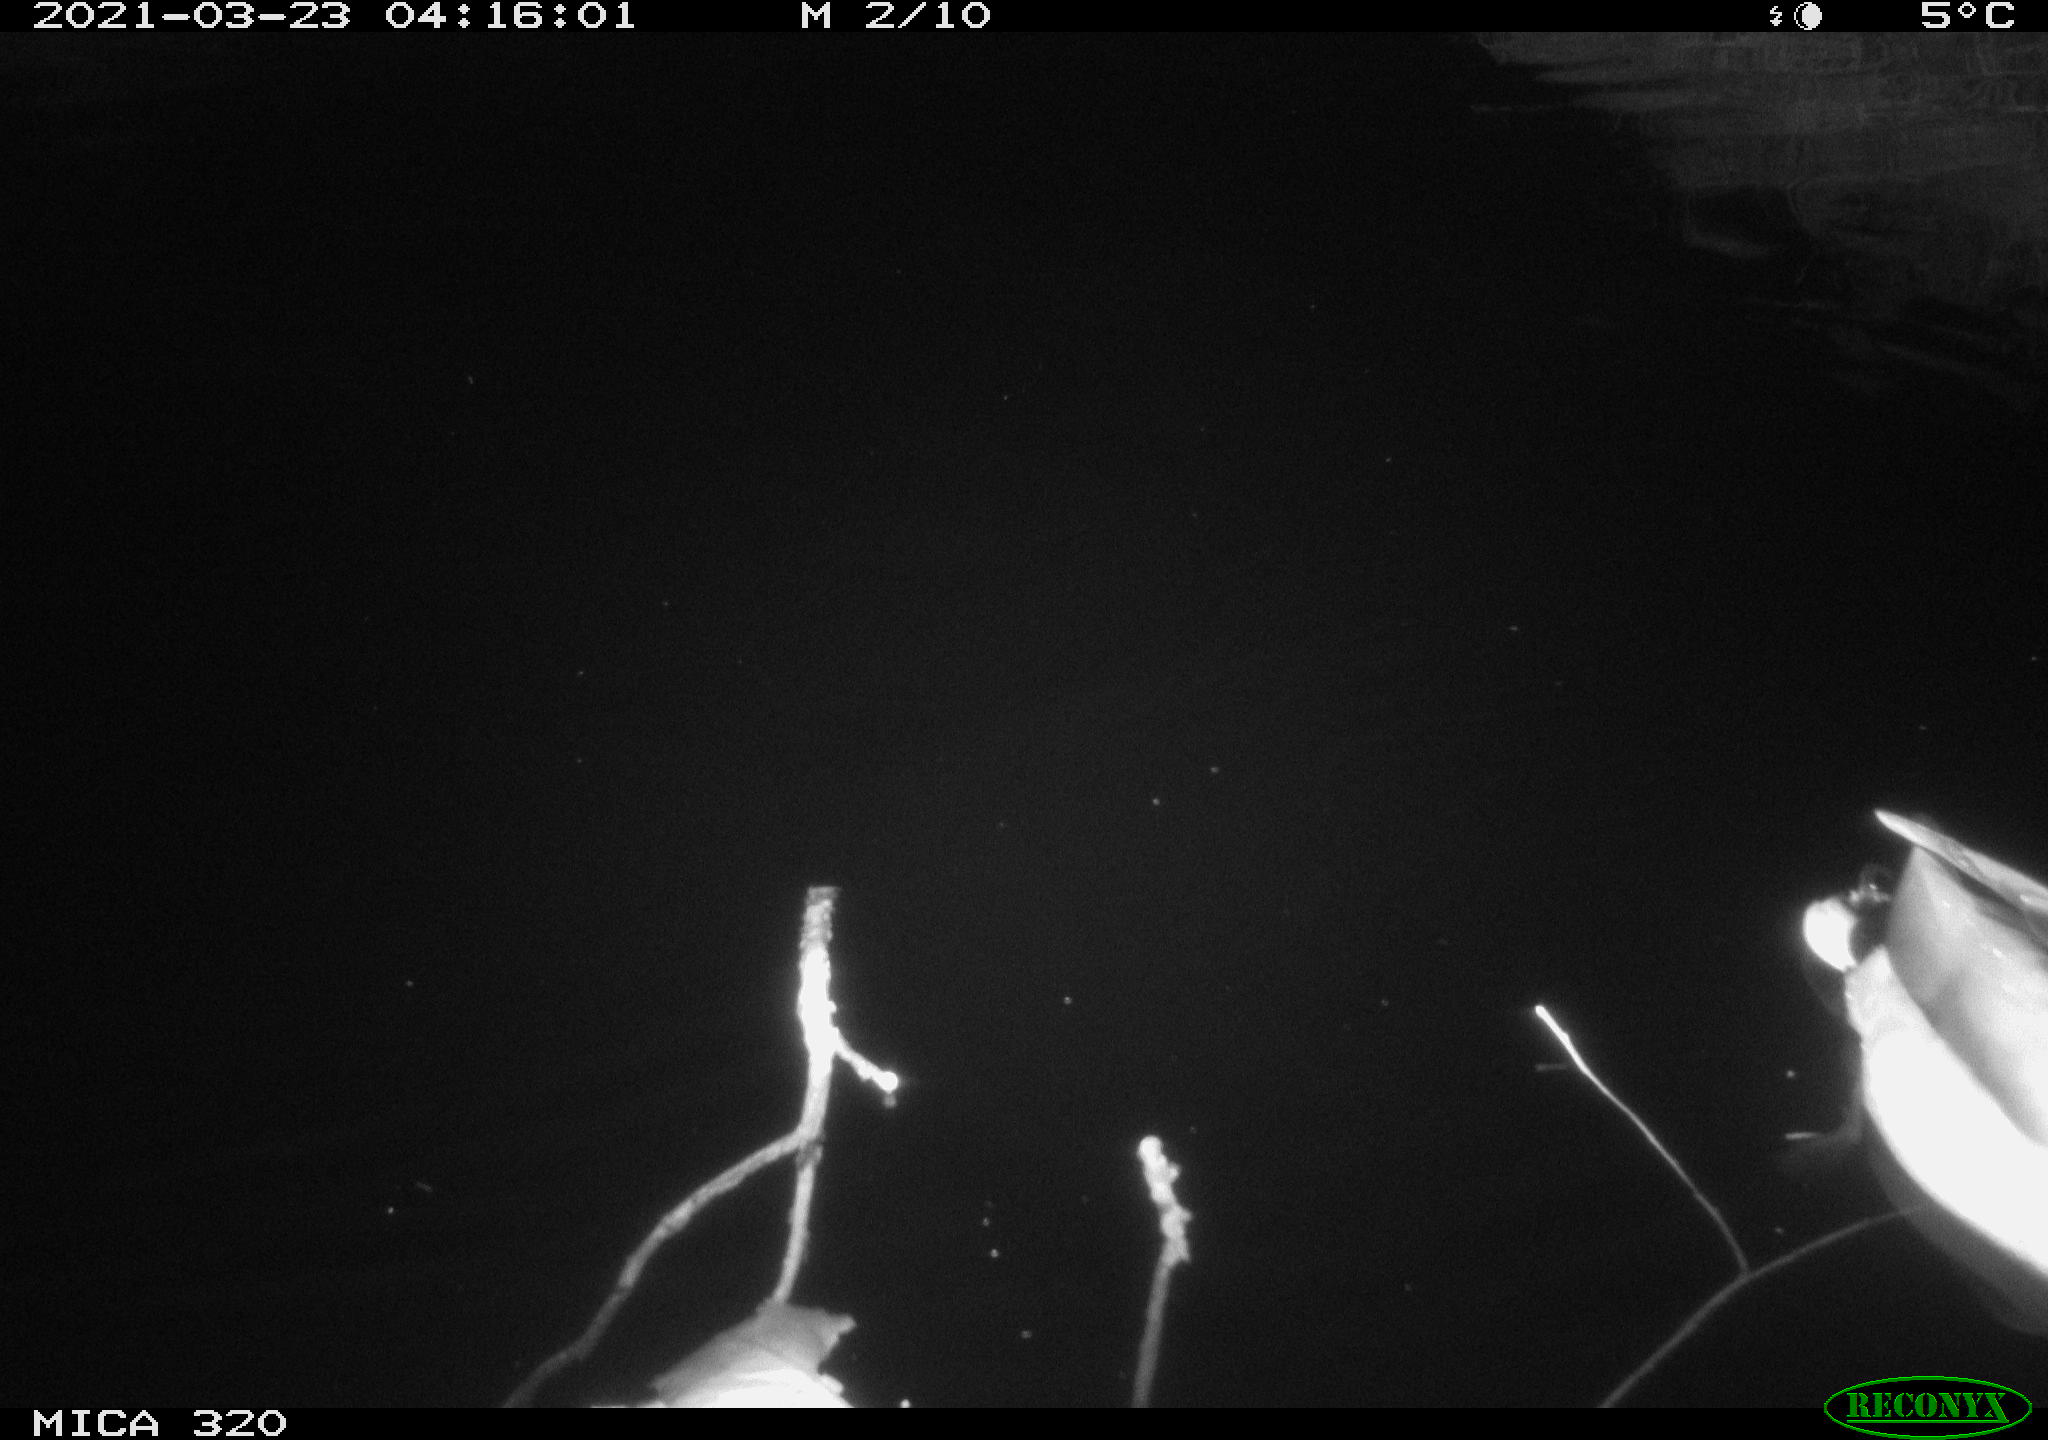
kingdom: Animalia
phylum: Chordata
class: Aves
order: Anseriformes
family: Anatidae
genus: Anas
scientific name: Anas platyrhynchos
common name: Mallard
